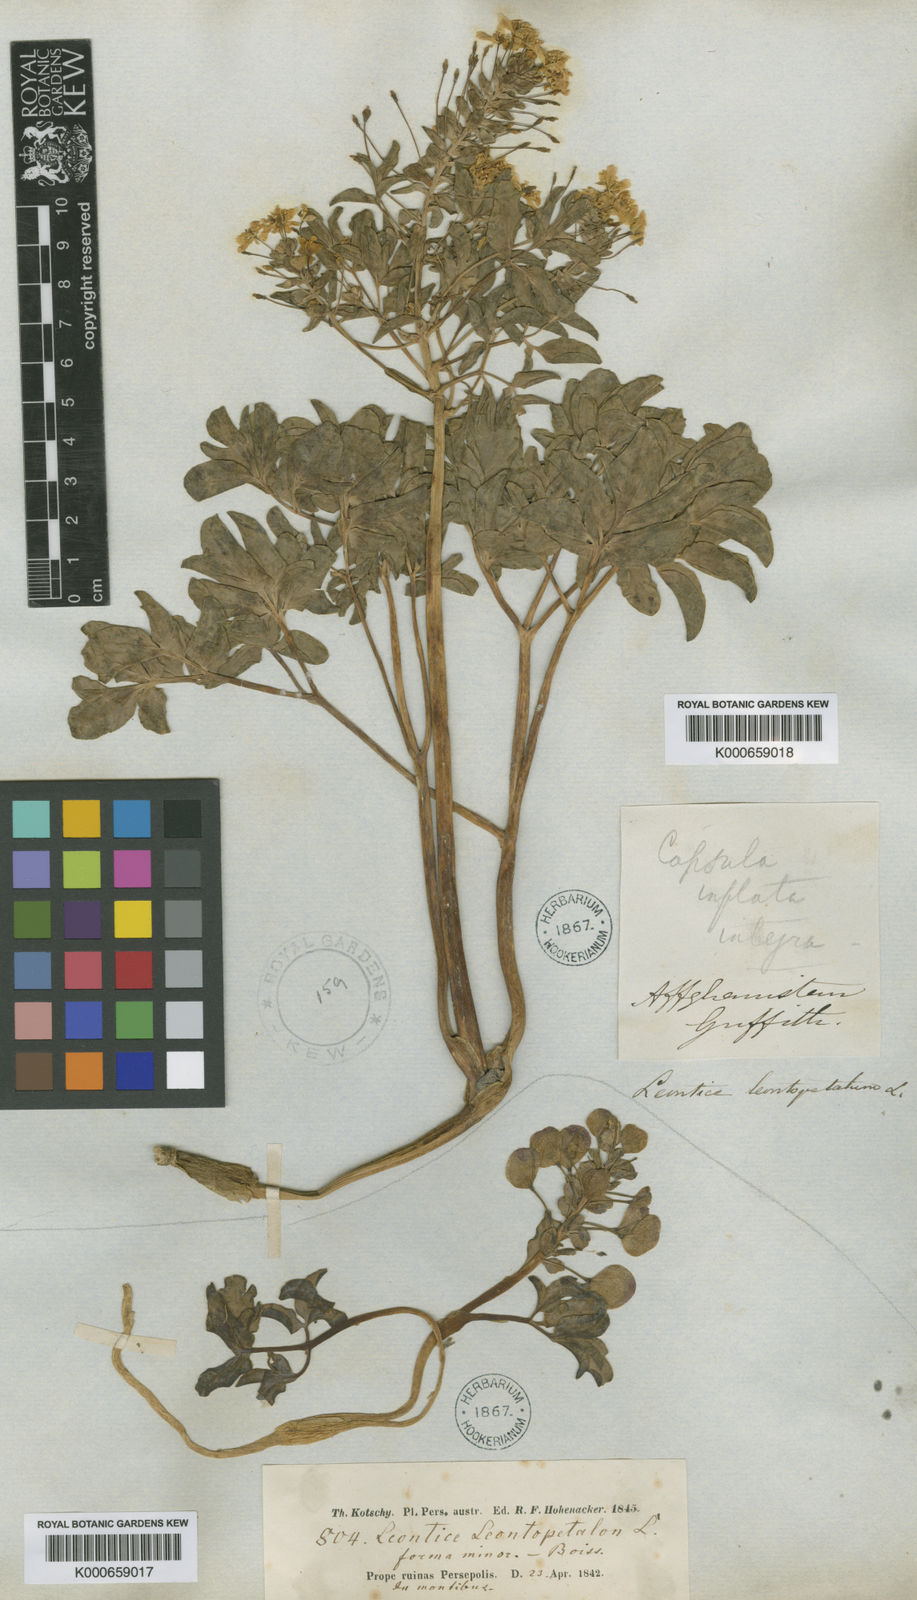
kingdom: Plantae
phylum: Tracheophyta
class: Magnoliopsida
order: Ranunculales
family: Berberidaceae
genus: Leontice
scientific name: Leontice
